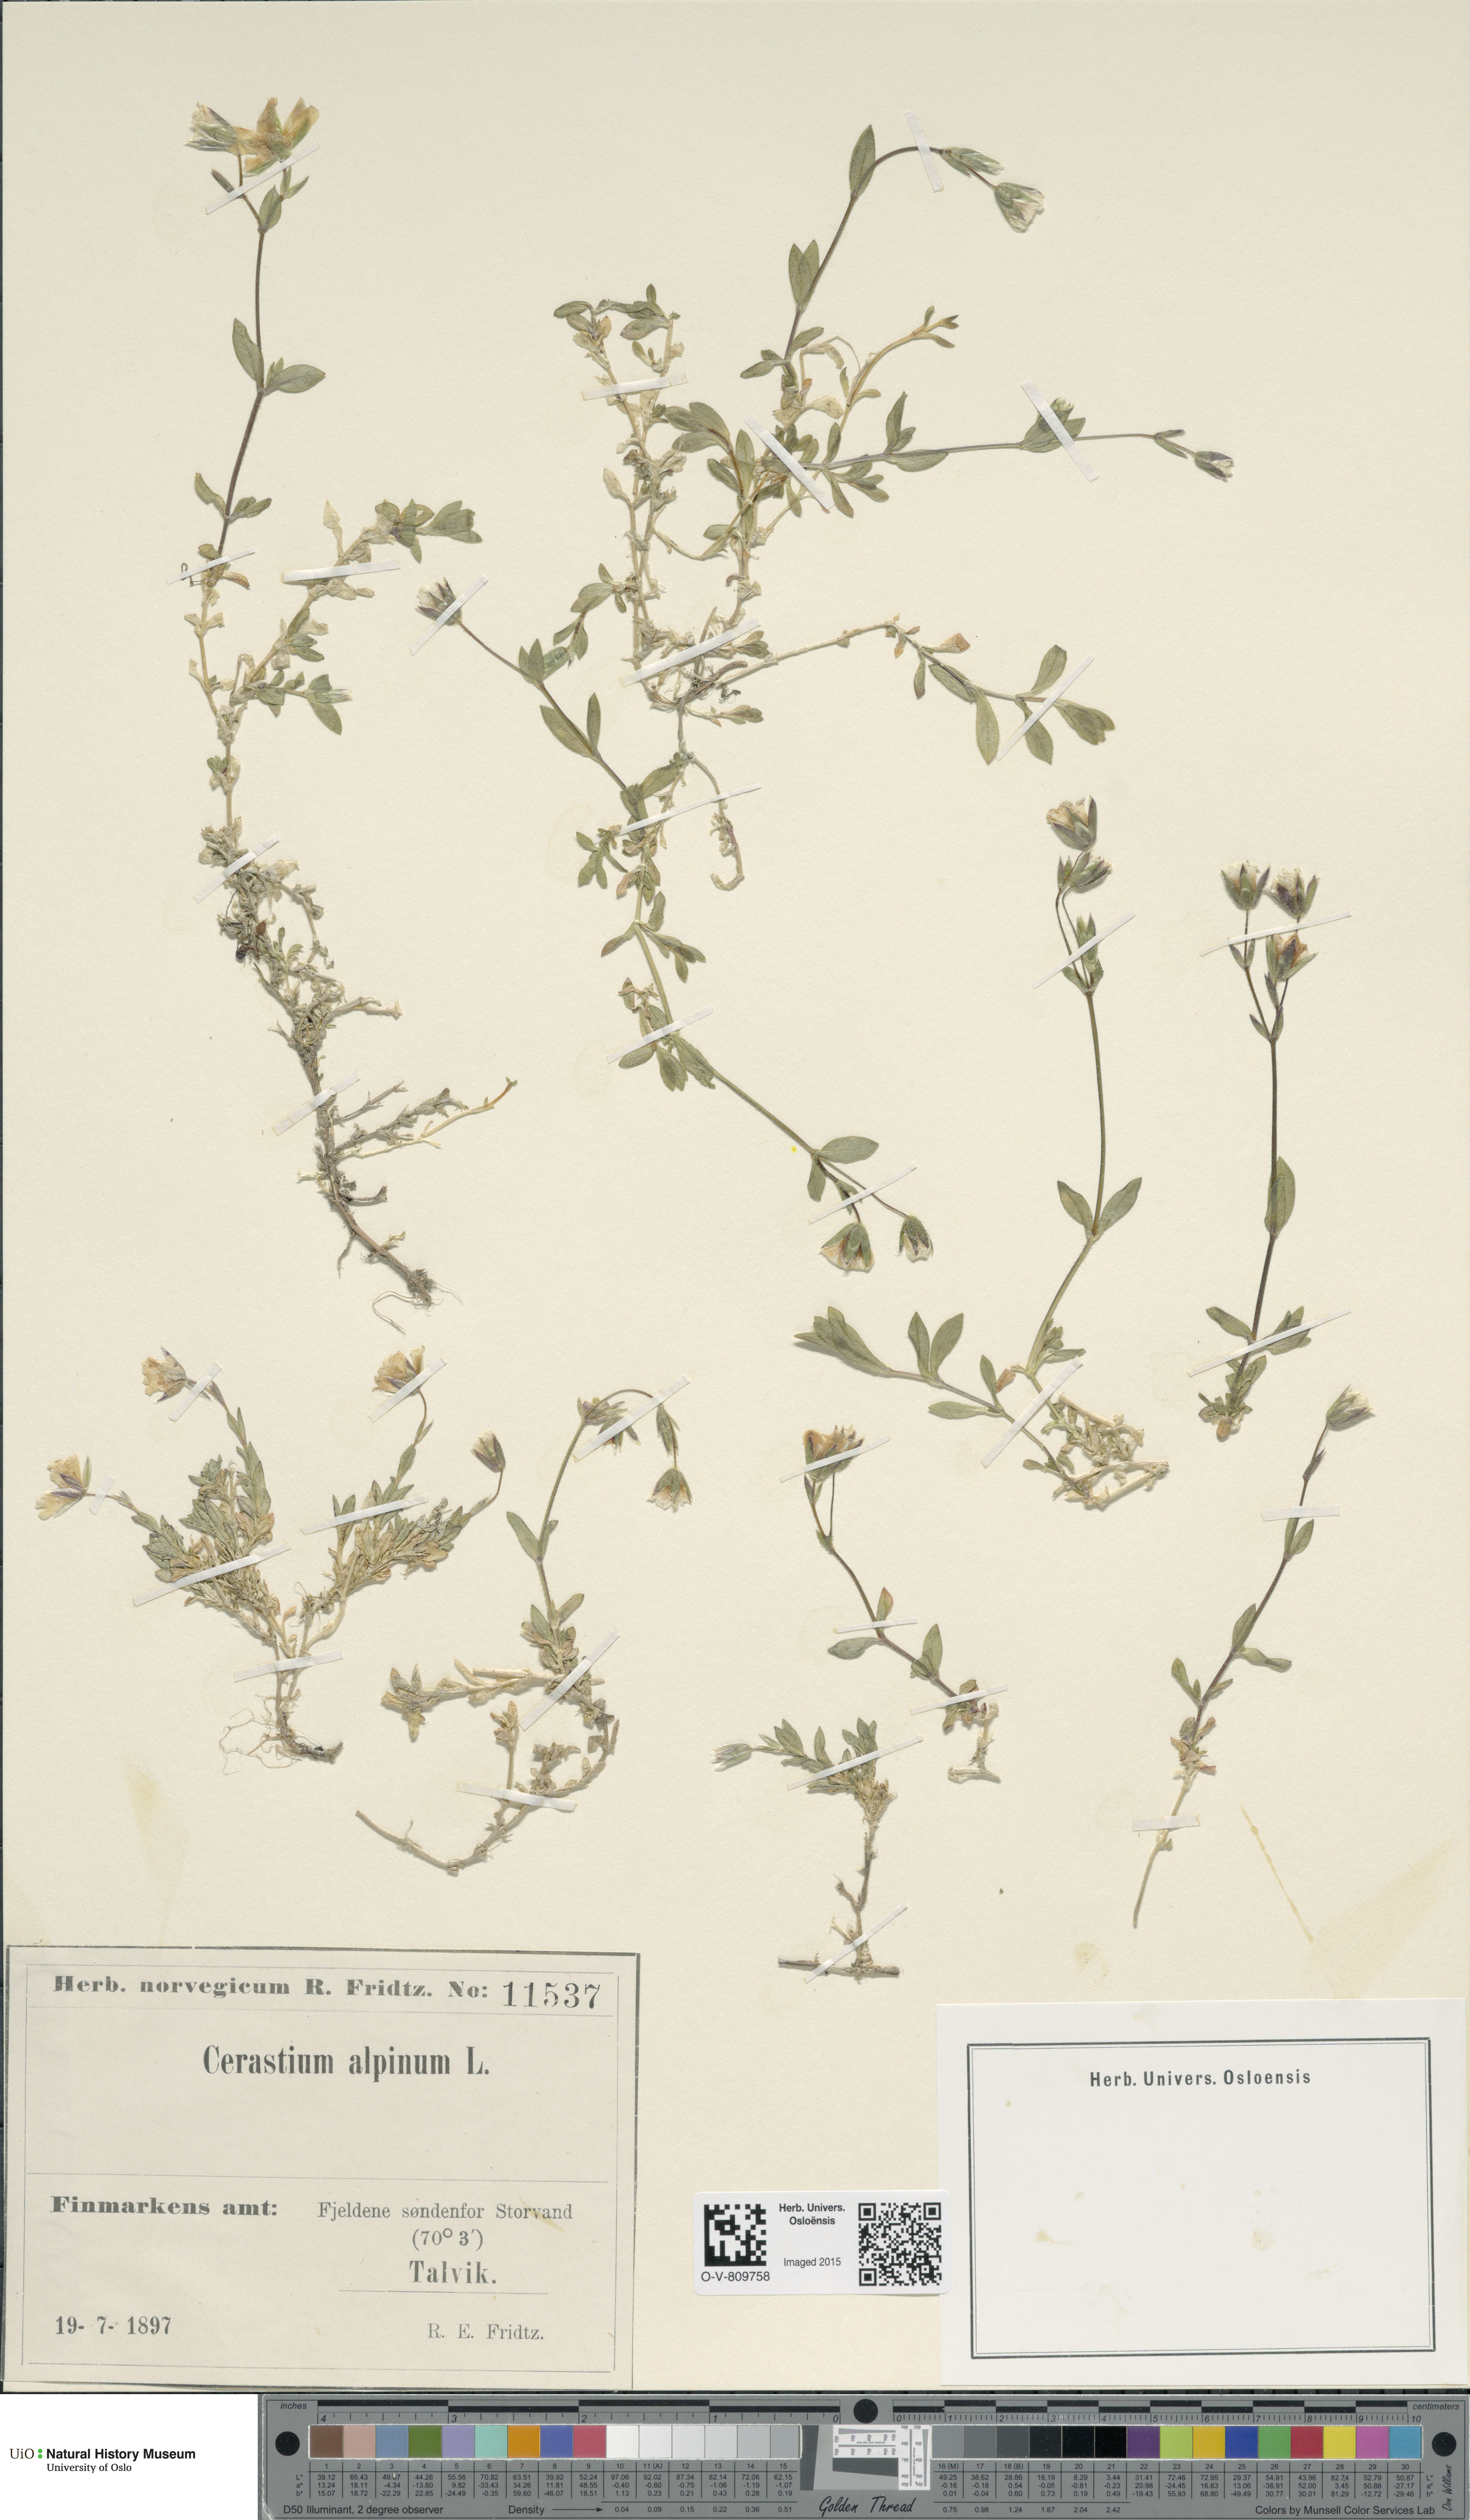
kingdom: Plantae
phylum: Tracheophyta
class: Magnoliopsida
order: Caryophyllales
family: Caryophyllaceae
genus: Cerastium
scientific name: Cerastium alpinum
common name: Alpine mouse-ear
